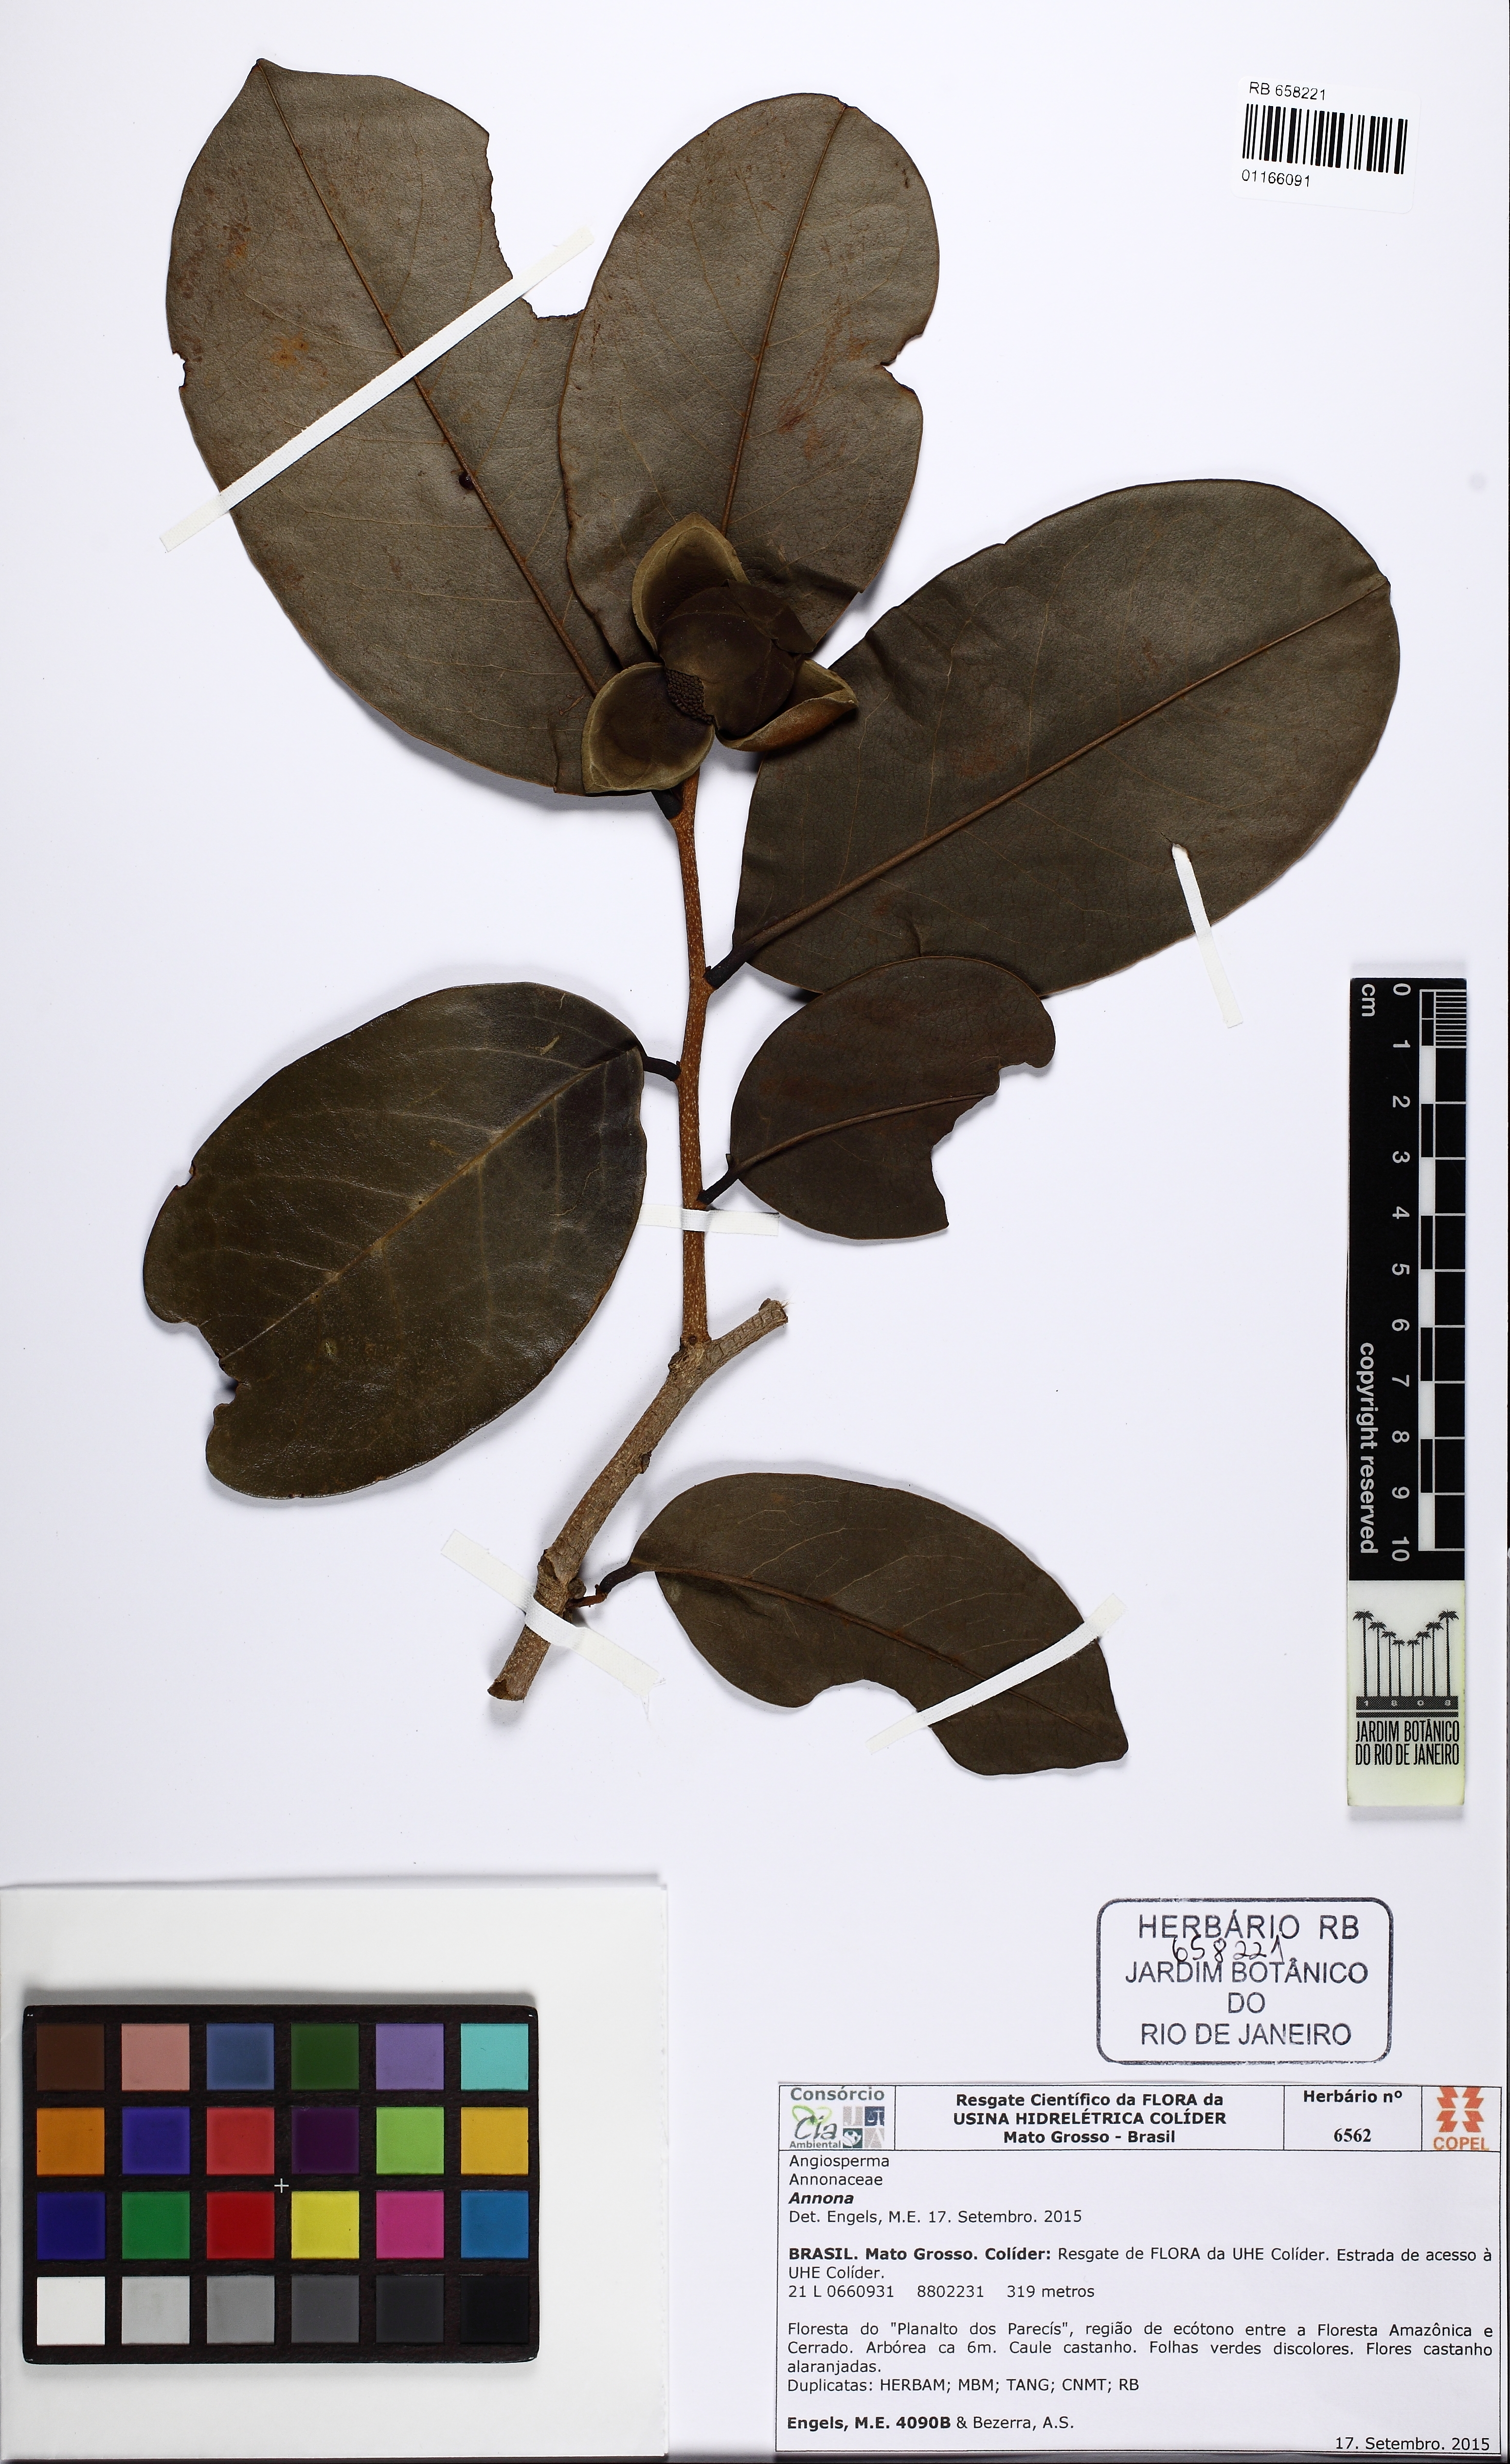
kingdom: Plantae
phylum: Tracheophyta
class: Magnoliopsida
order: Magnoliales
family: Annonaceae
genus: Annona
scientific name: Annona
